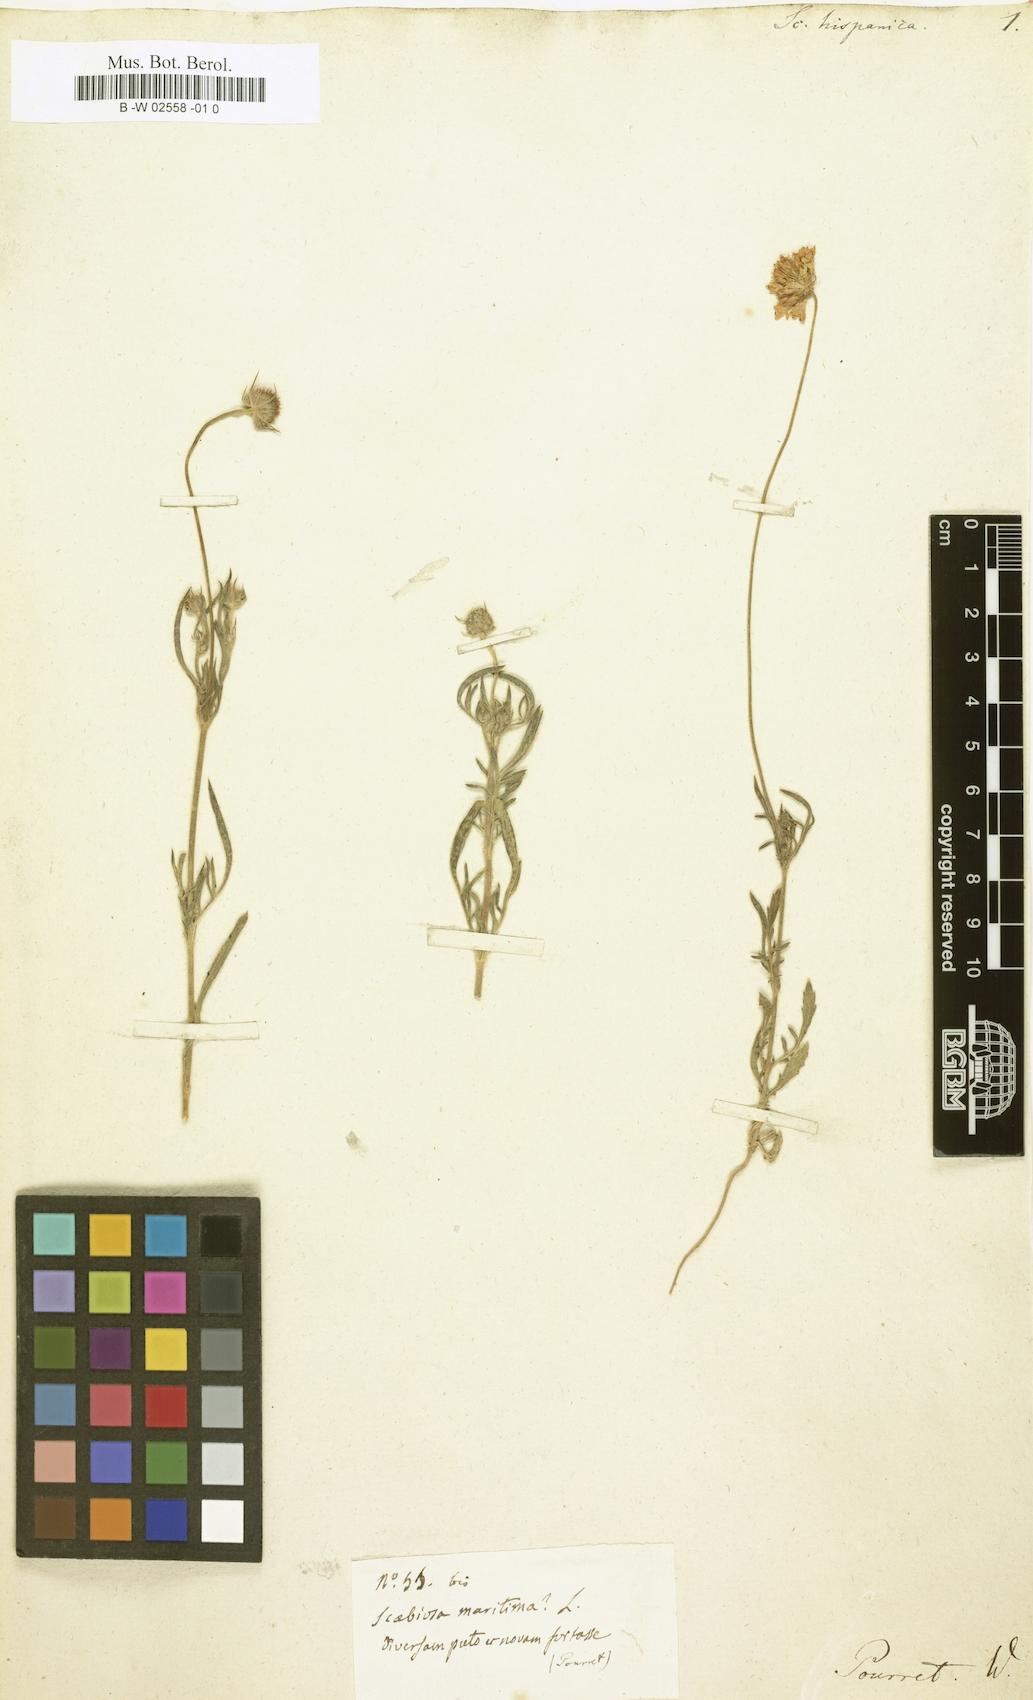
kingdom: Plantae
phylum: Tracheophyta
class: Magnoliopsida
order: Dipsacales
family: Caprifoliaceae
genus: Scabiosa
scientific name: Scabiosa hispanica
